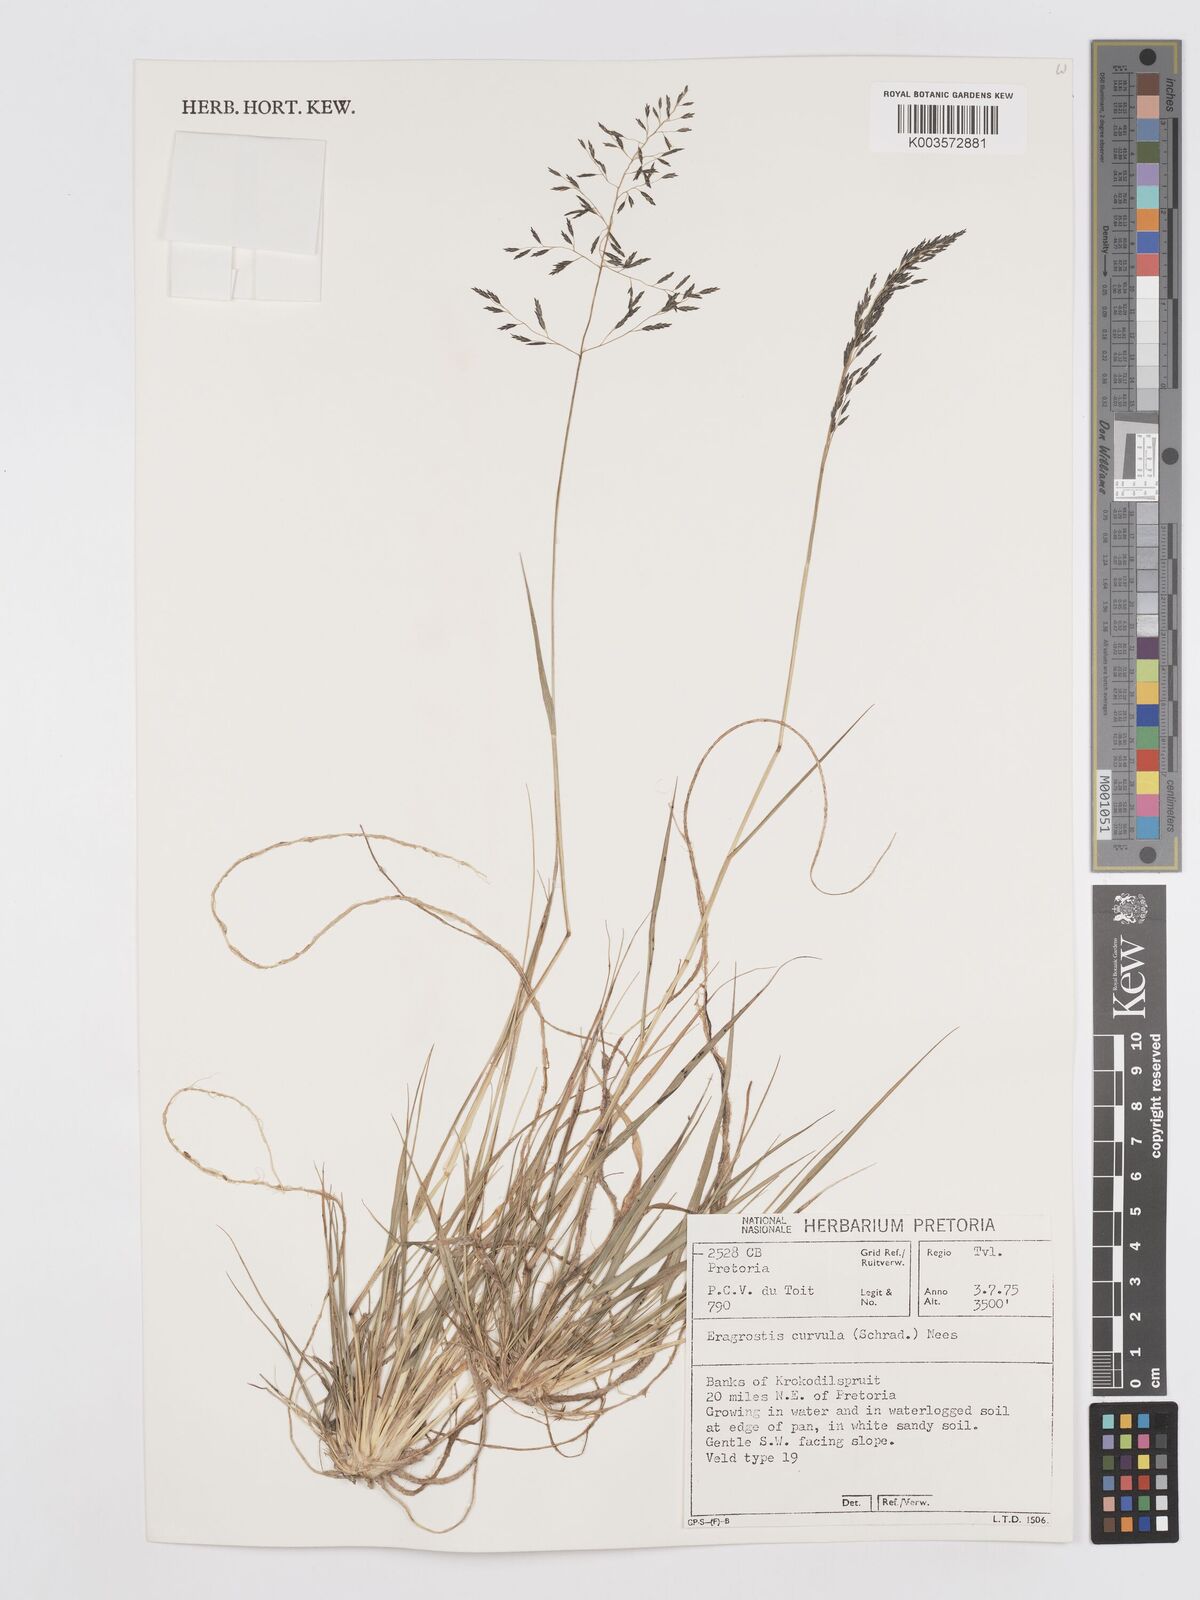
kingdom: Plantae
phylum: Tracheophyta
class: Liliopsida
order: Poales
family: Poaceae
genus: Eragrostis
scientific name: Eragrostis curvula
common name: African love-grass
